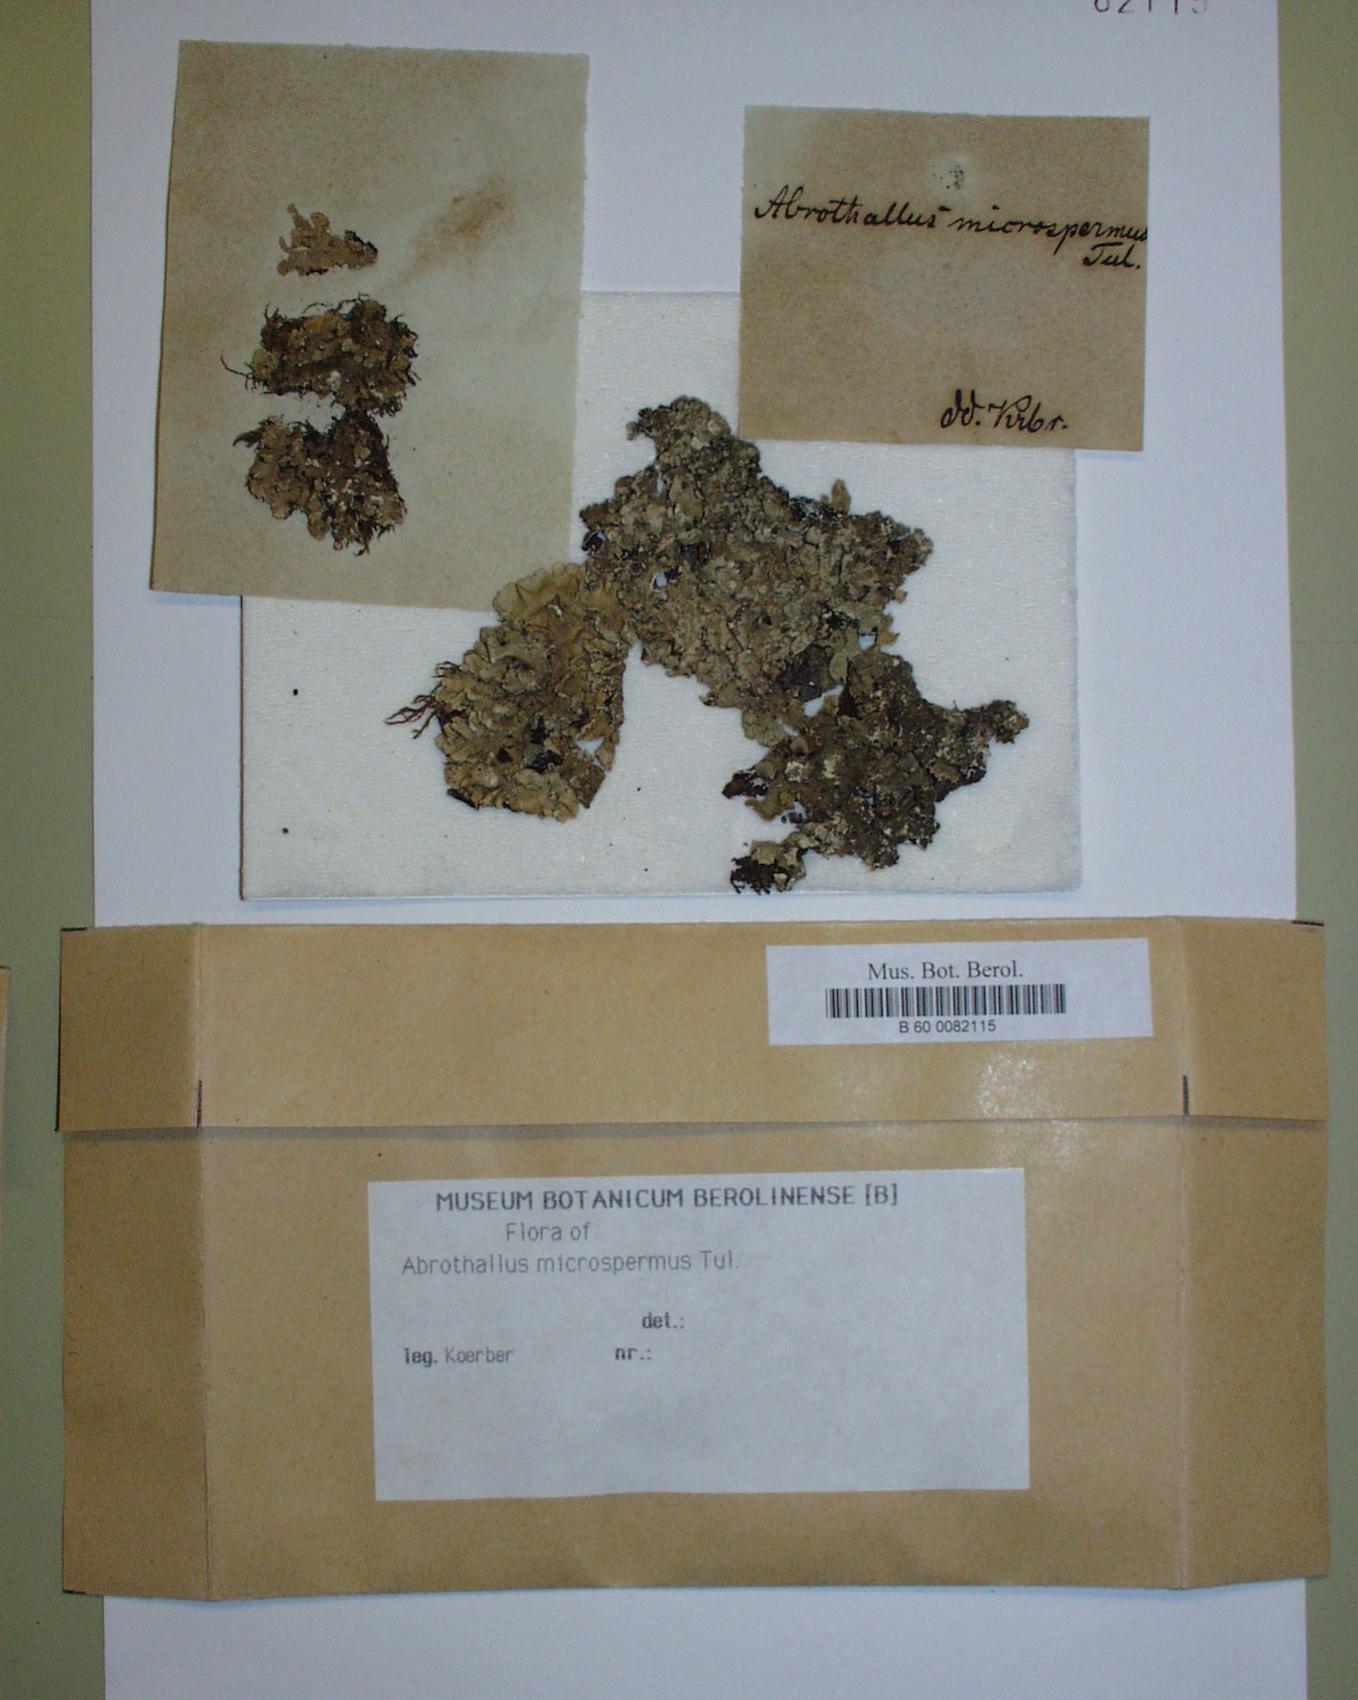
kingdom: Fungi
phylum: Ascomycota
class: Dothideomycetes
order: Abrothallales
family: Abrothallaceae
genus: Abrothallus
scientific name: Abrothallus microspermus
